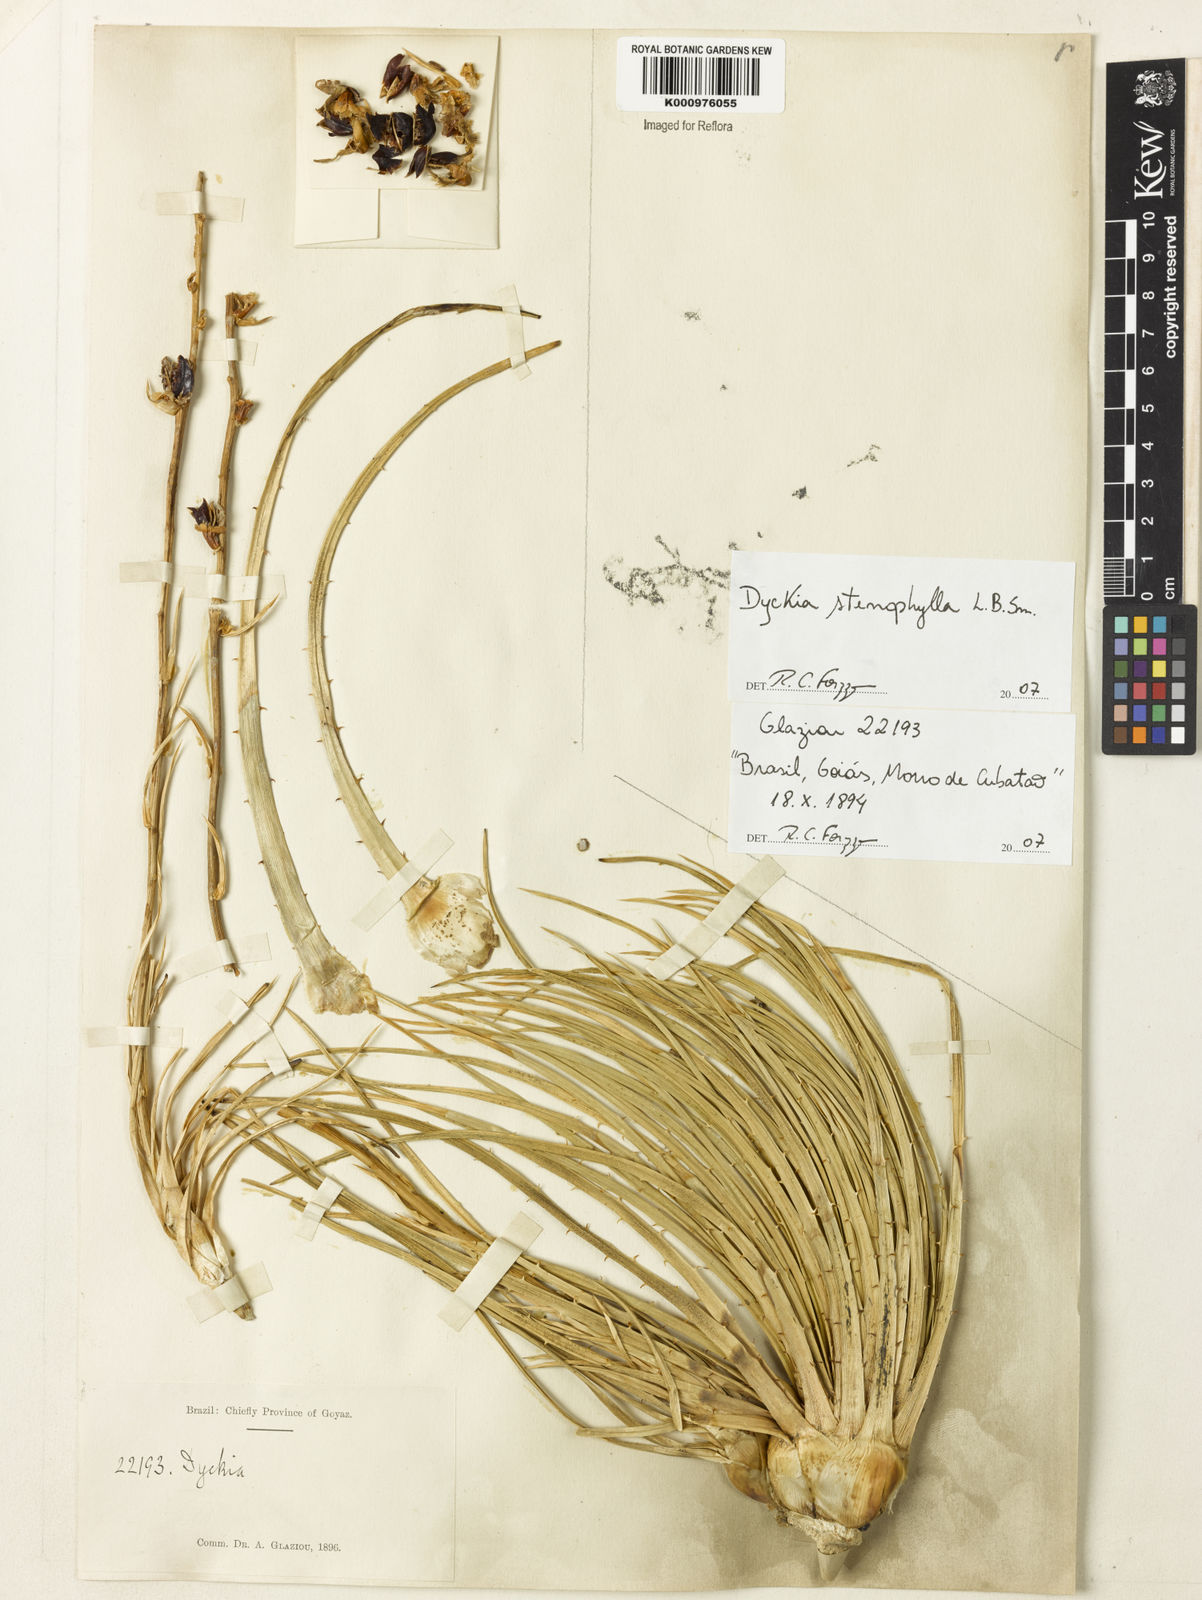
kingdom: Plantae
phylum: Tracheophyta
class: Liliopsida
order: Poales
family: Bromeliaceae
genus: Dyckia
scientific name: Dyckia stenophylla
